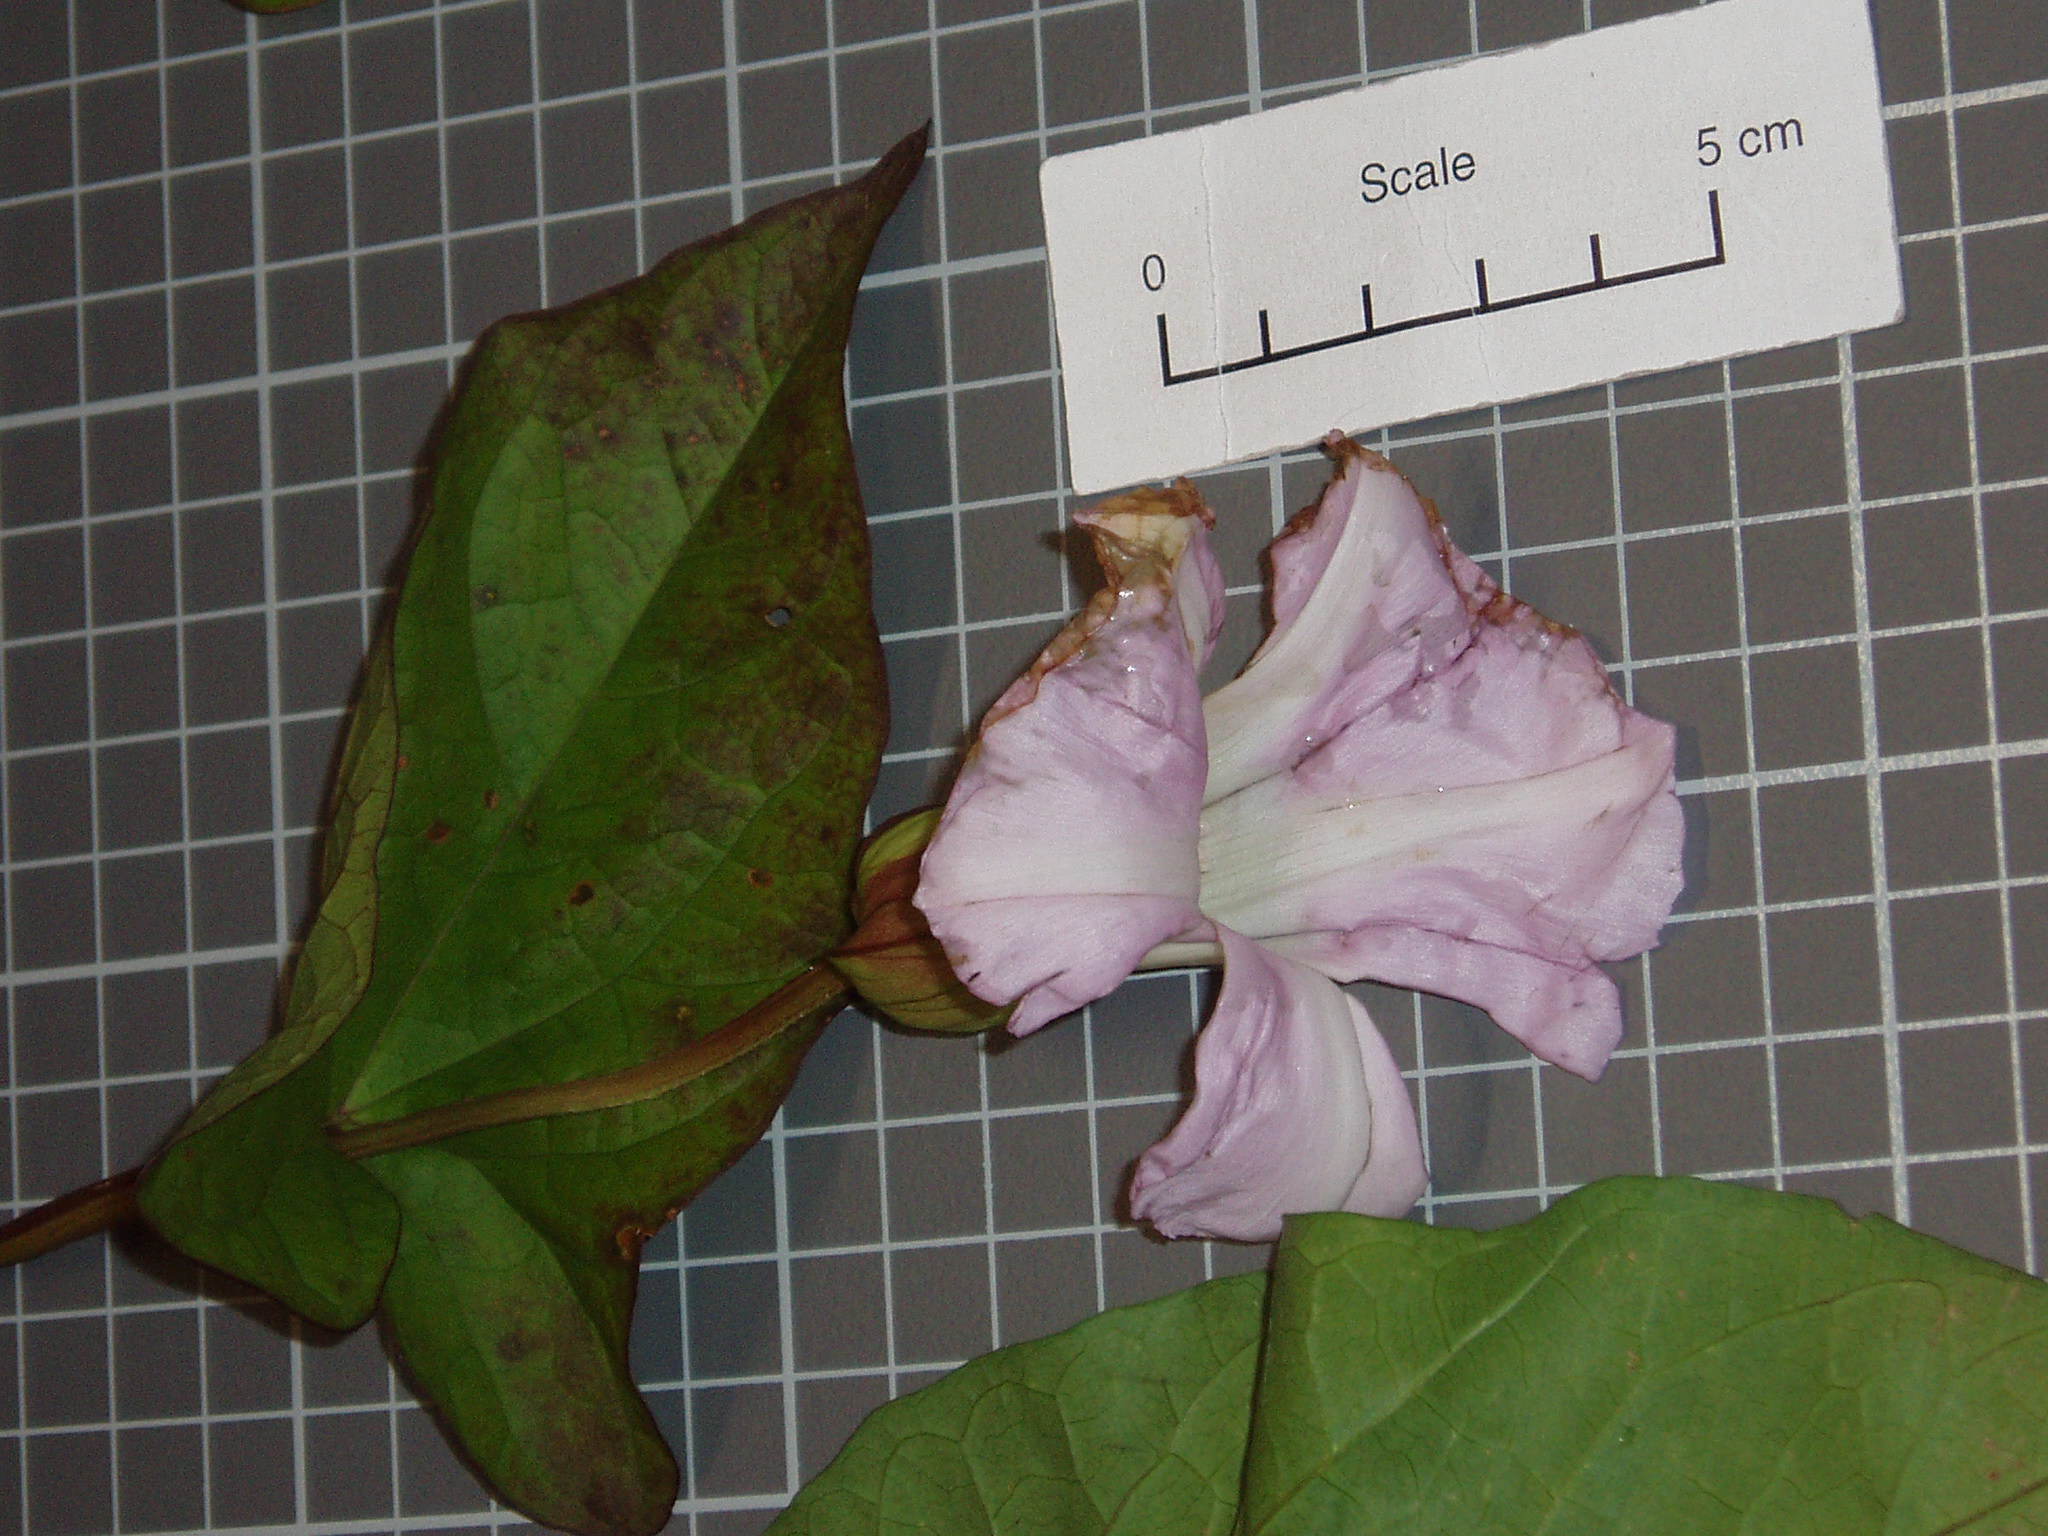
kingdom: Plantae
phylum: Tracheophyta
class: Magnoliopsida
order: Solanales
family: Convolvulaceae
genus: Calystegia
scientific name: Calystegia
